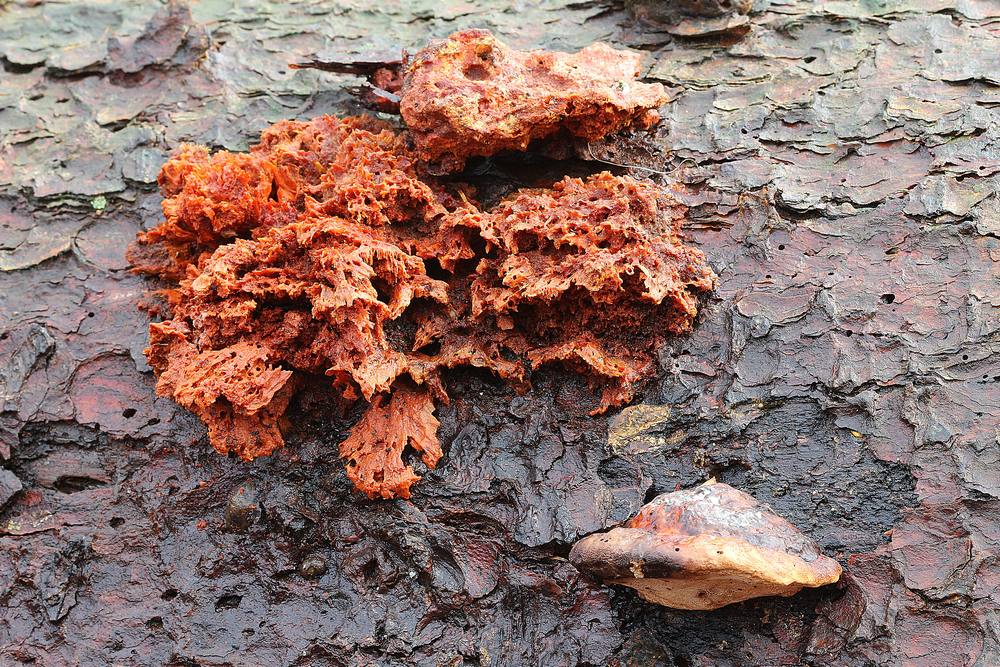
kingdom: Fungi
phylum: Basidiomycota
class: Agaricomycetes
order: Polyporales
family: Pycnoporellaceae
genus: Pycnoporellus
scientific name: Pycnoporellus fulgens
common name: flammeporesvamp
